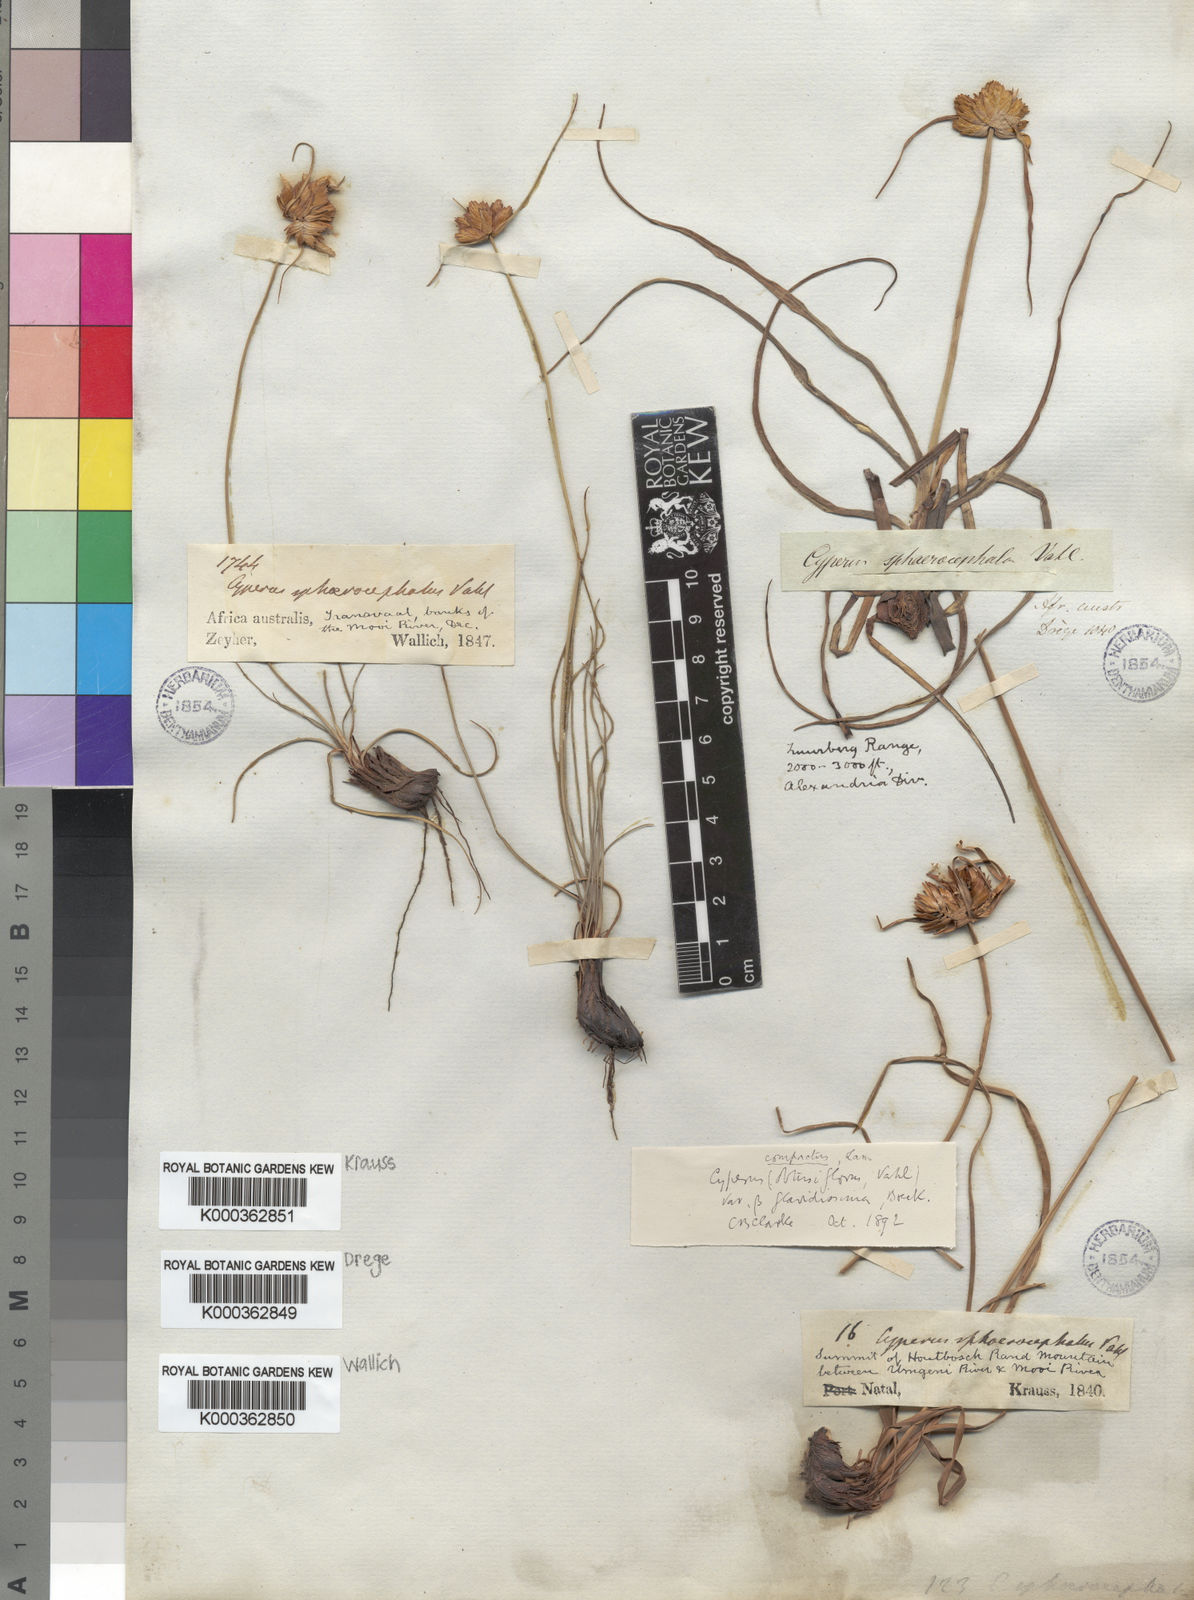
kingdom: Plantae
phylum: Tracheophyta
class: Liliopsida
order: Poales
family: Cyperaceae
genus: Cyperus
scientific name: Cyperus niveus
